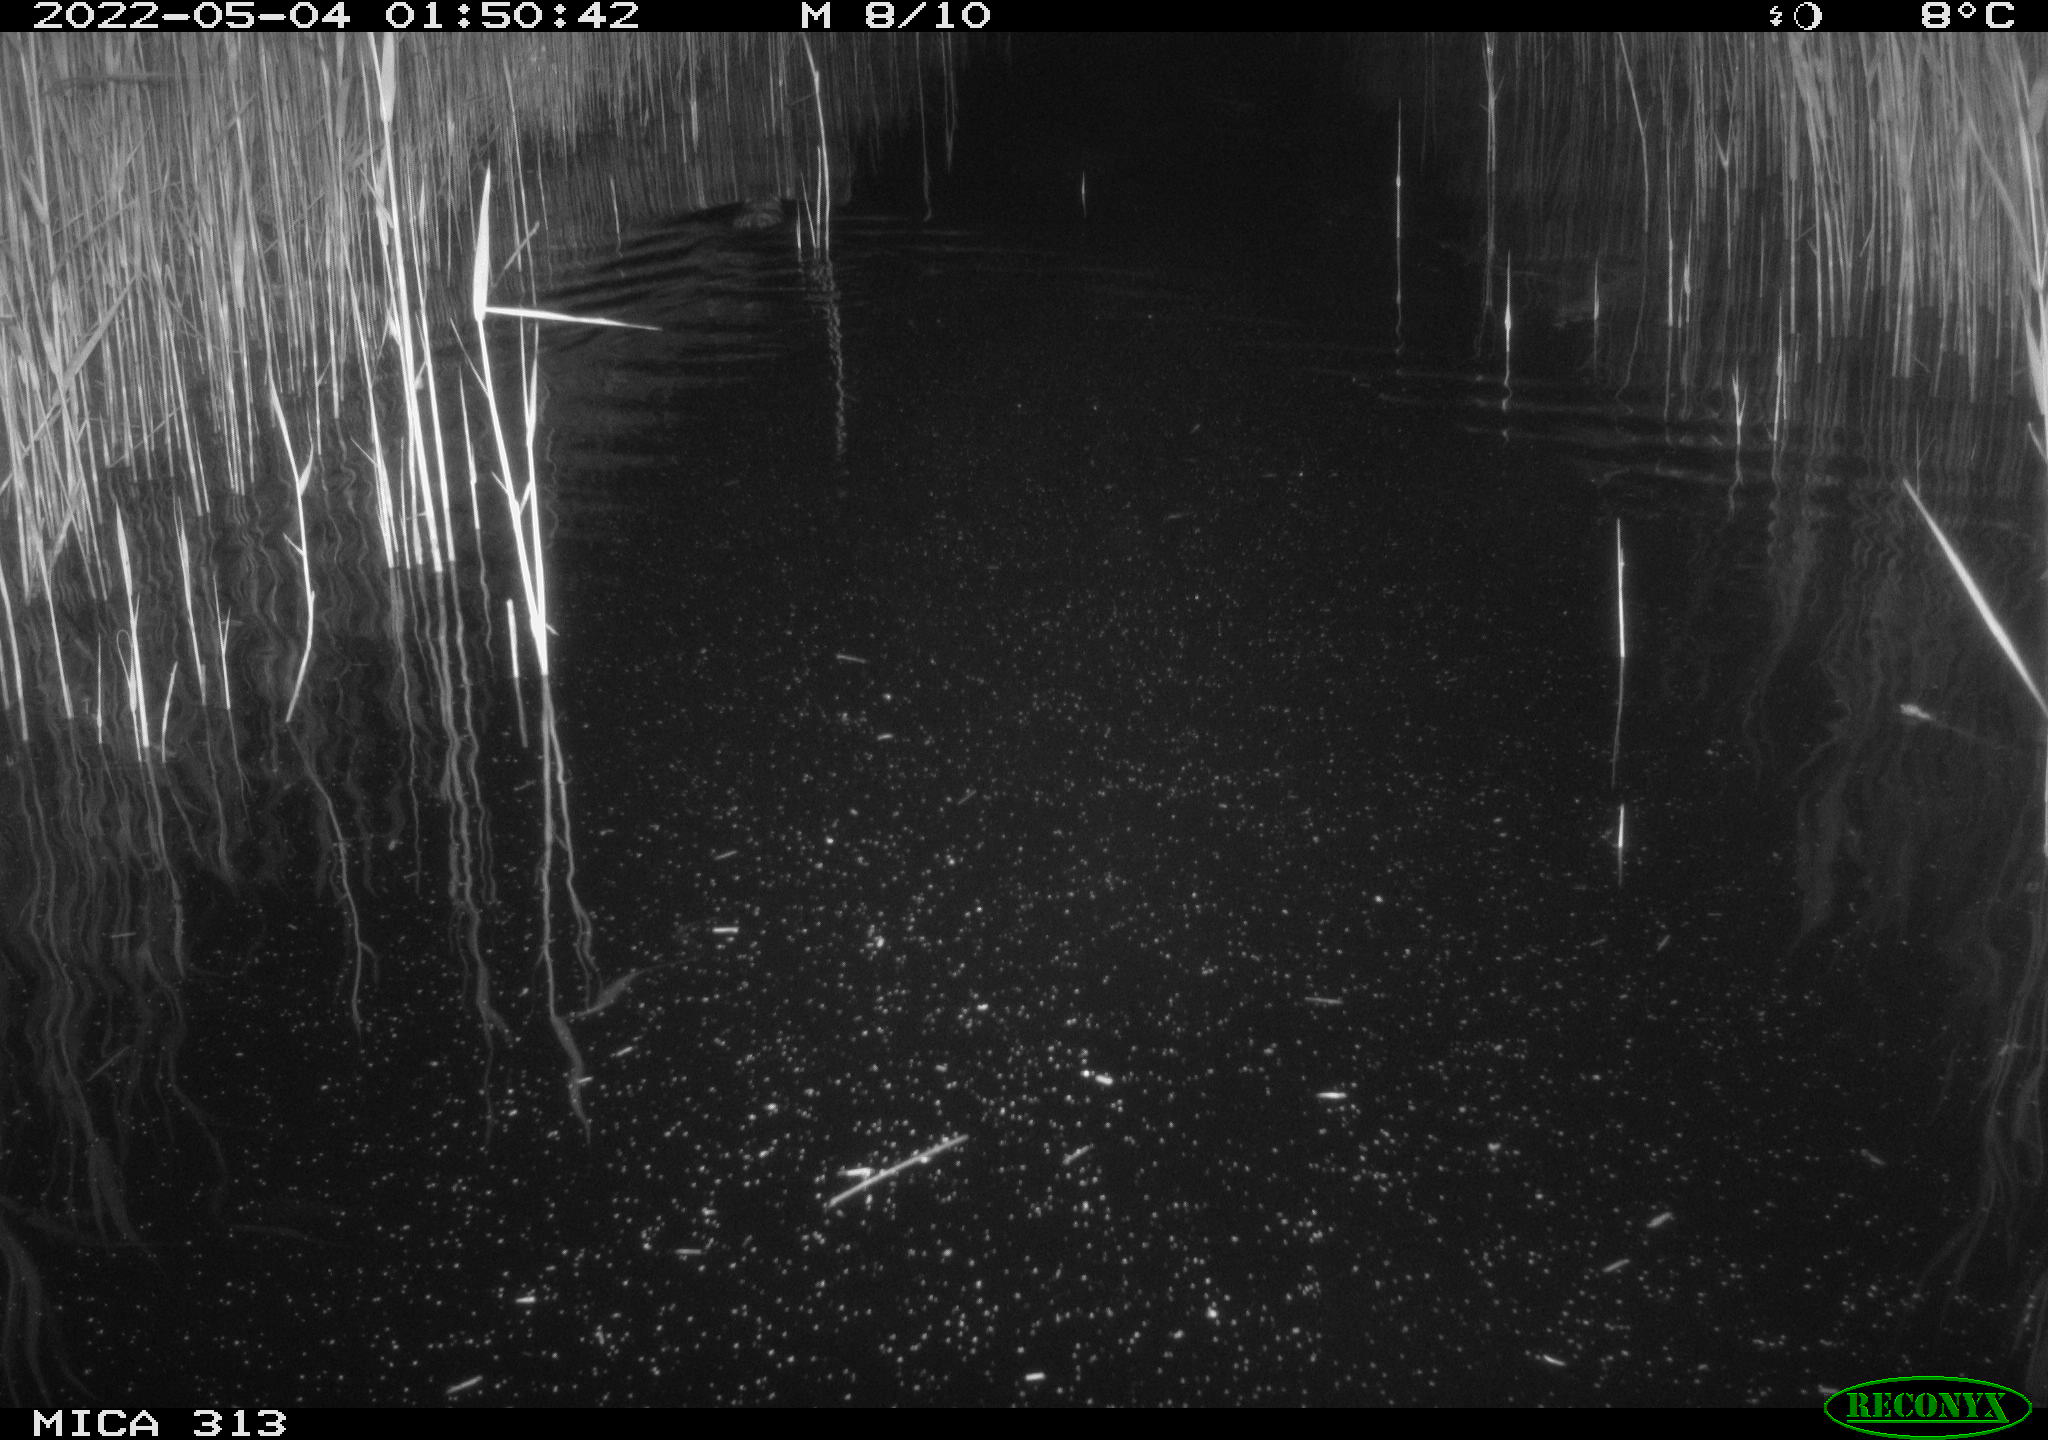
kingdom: Animalia
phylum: Chordata
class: Mammalia
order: Rodentia
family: Cricetidae
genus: Ondatra
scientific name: Ondatra zibethicus
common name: Muskrat
